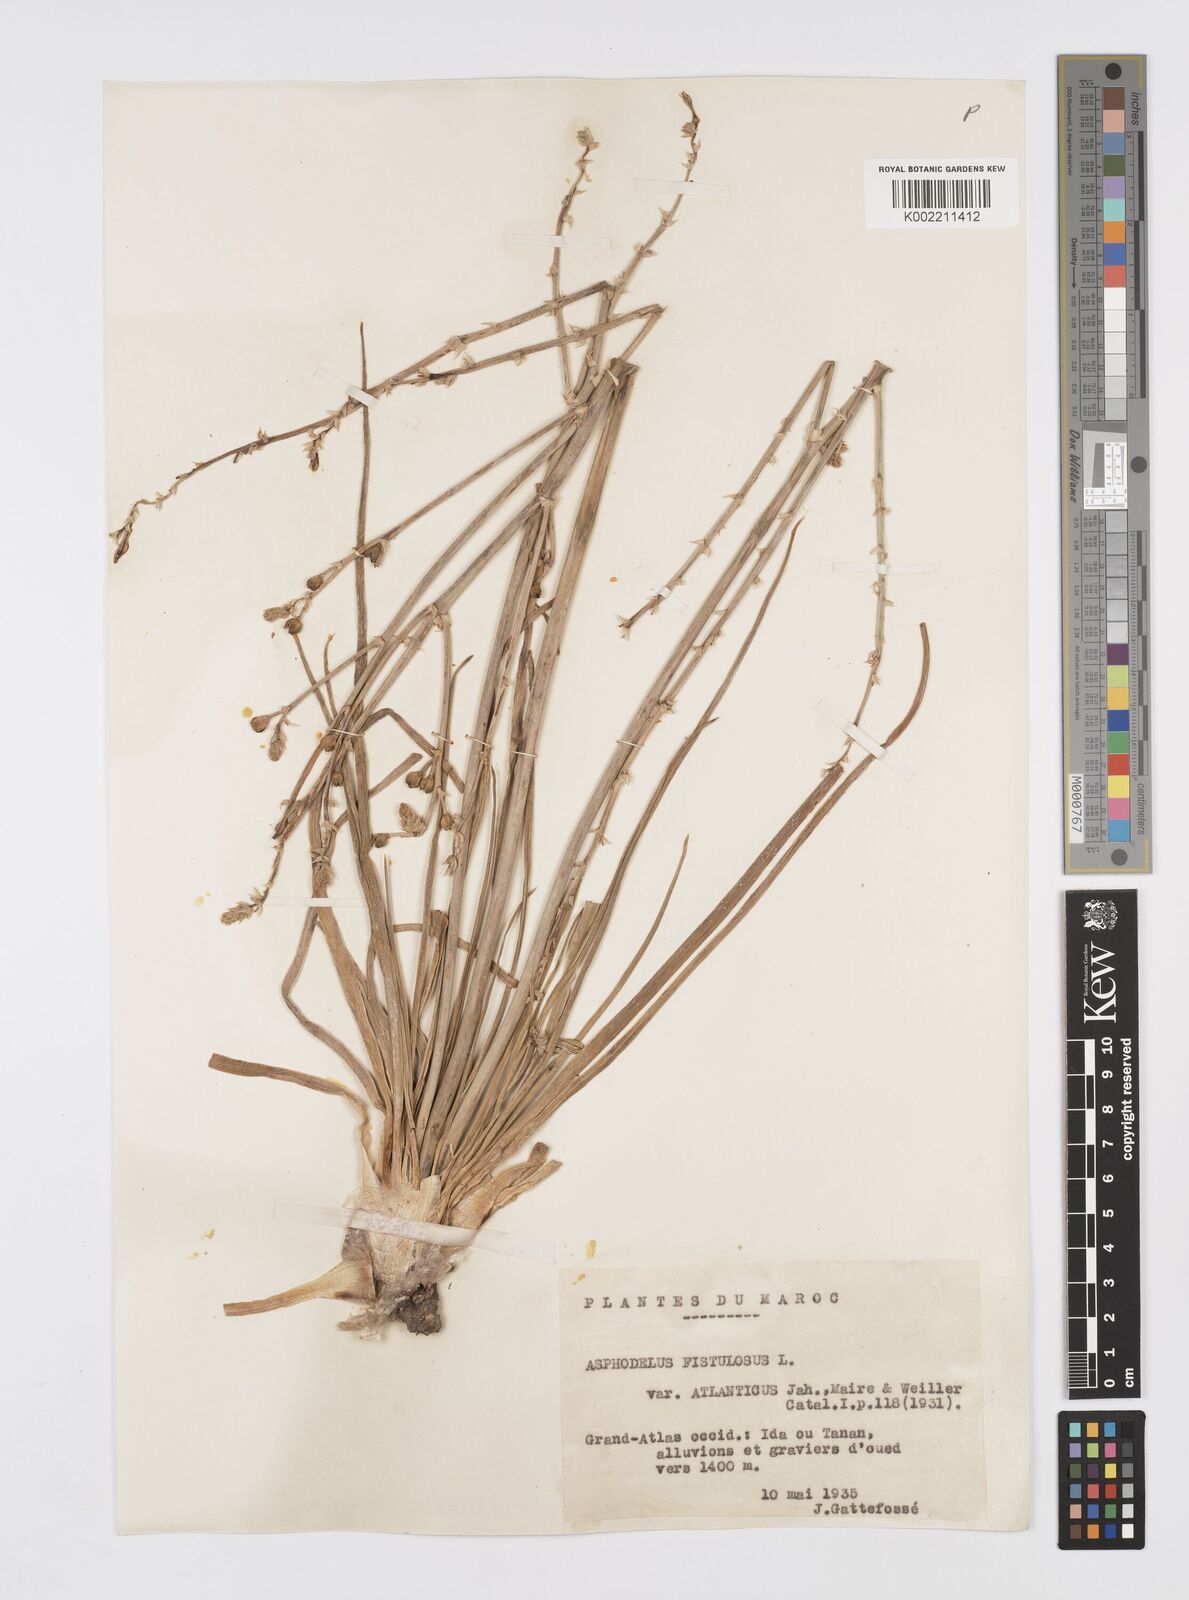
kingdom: Plantae
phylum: Tracheophyta
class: Liliopsida
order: Asparagales
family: Asphodelaceae
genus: Asphodelus
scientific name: Asphodelus fistulosus
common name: Onionweed
